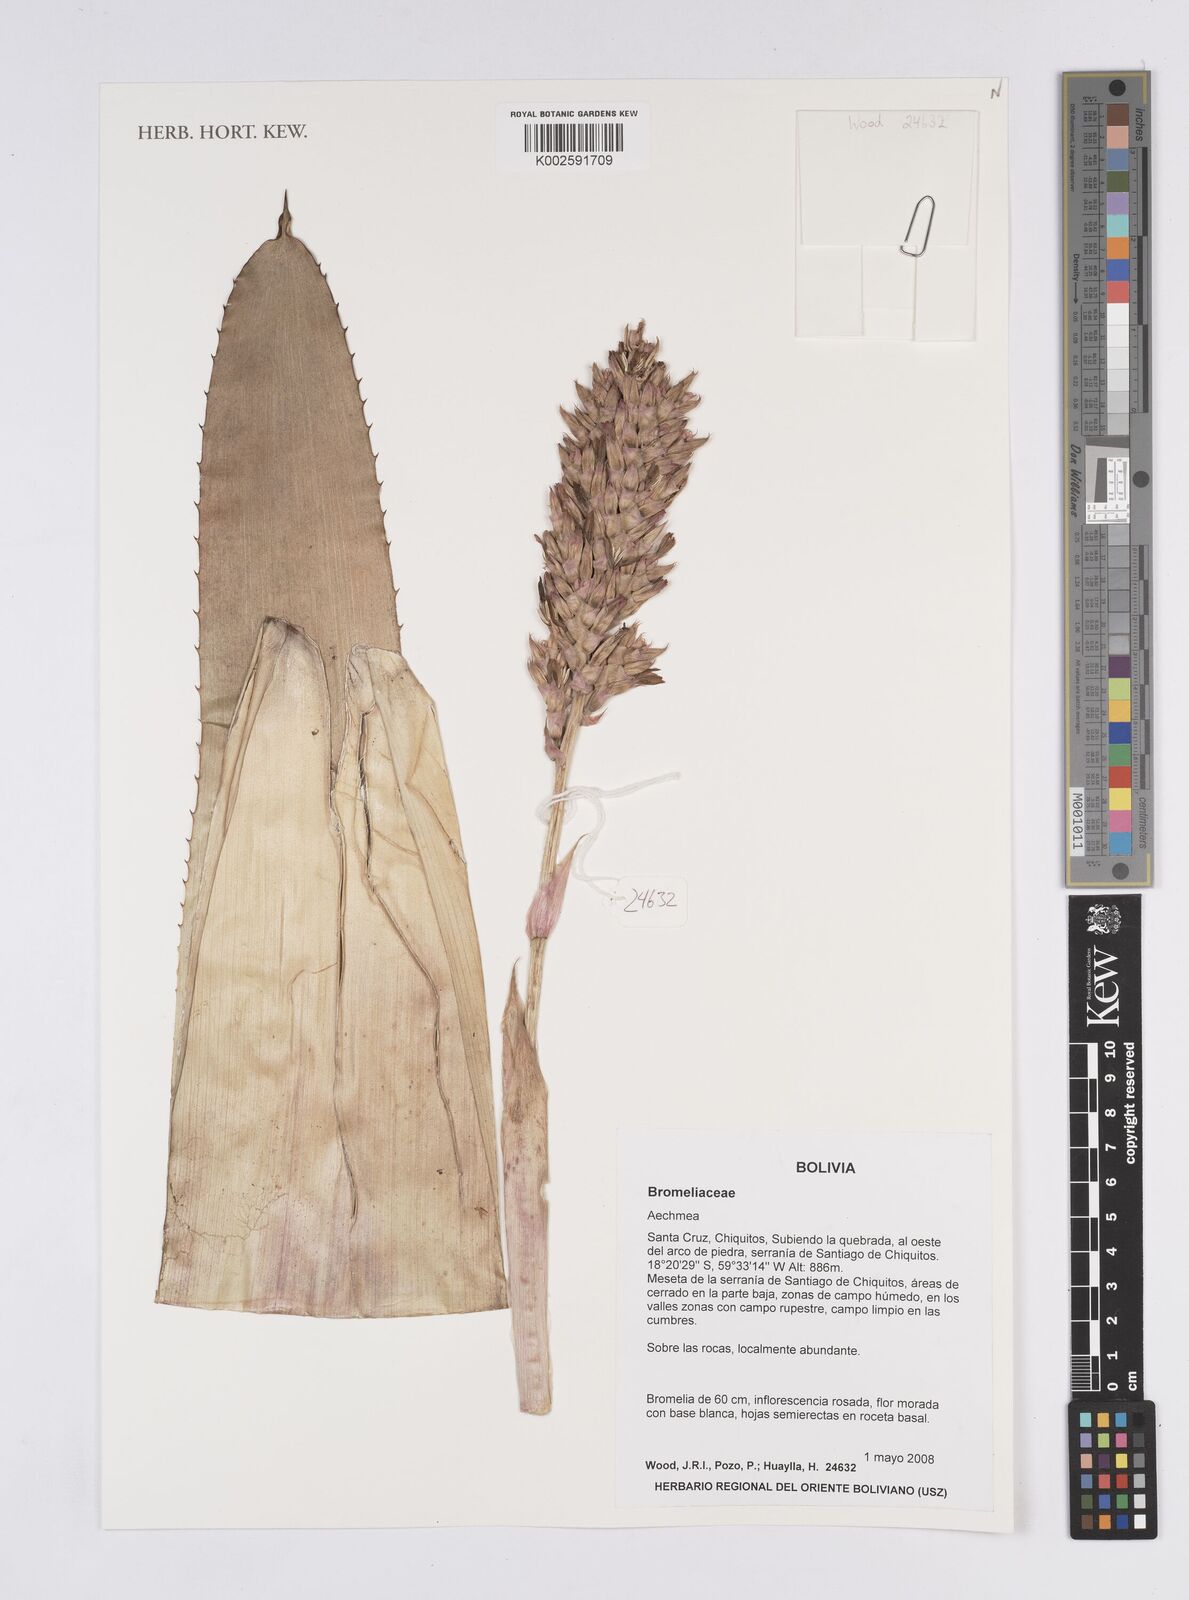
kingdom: Plantae
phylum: Tracheophyta
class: Liliopsida
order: Poales
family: Bromeliaceae
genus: Aechmea
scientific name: Aechmea
